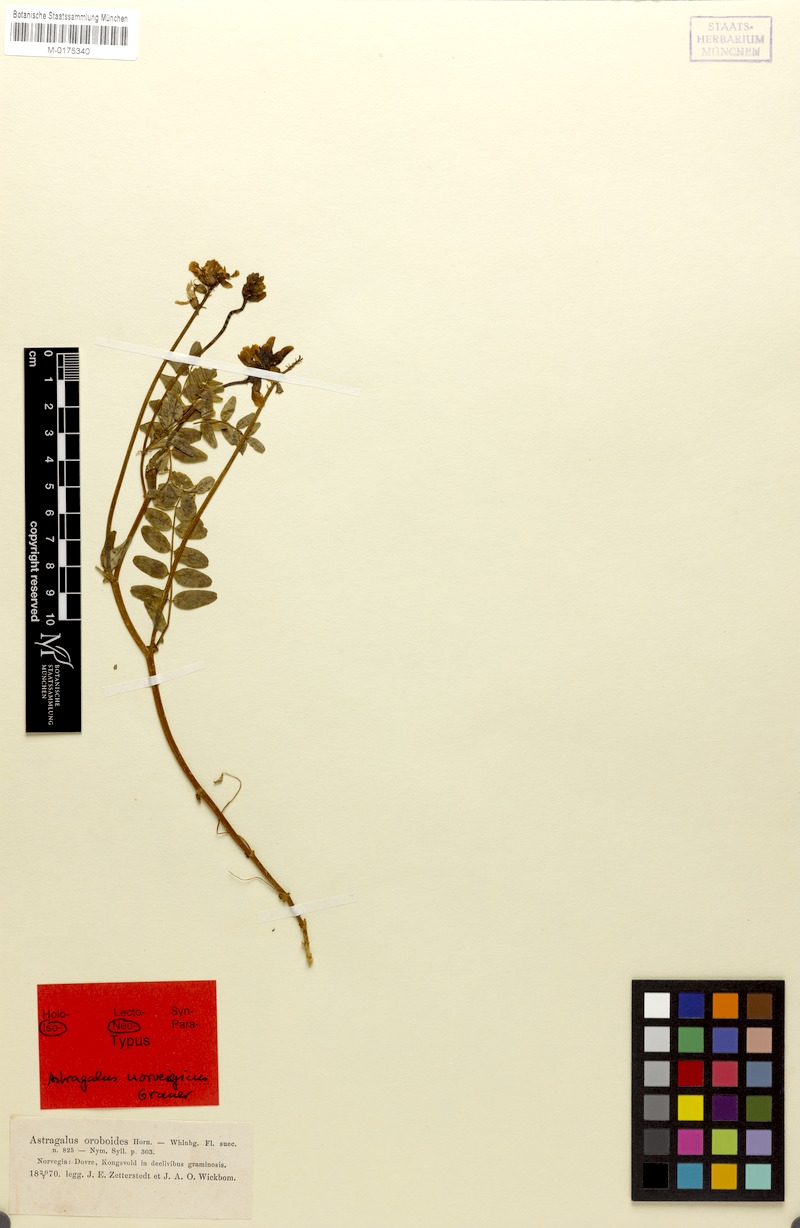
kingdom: Plantae
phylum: Tracheophyta
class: Magnoliopsida
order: Fabales
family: Fabaceae
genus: Astragalus
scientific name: Astragalus norvegicus
